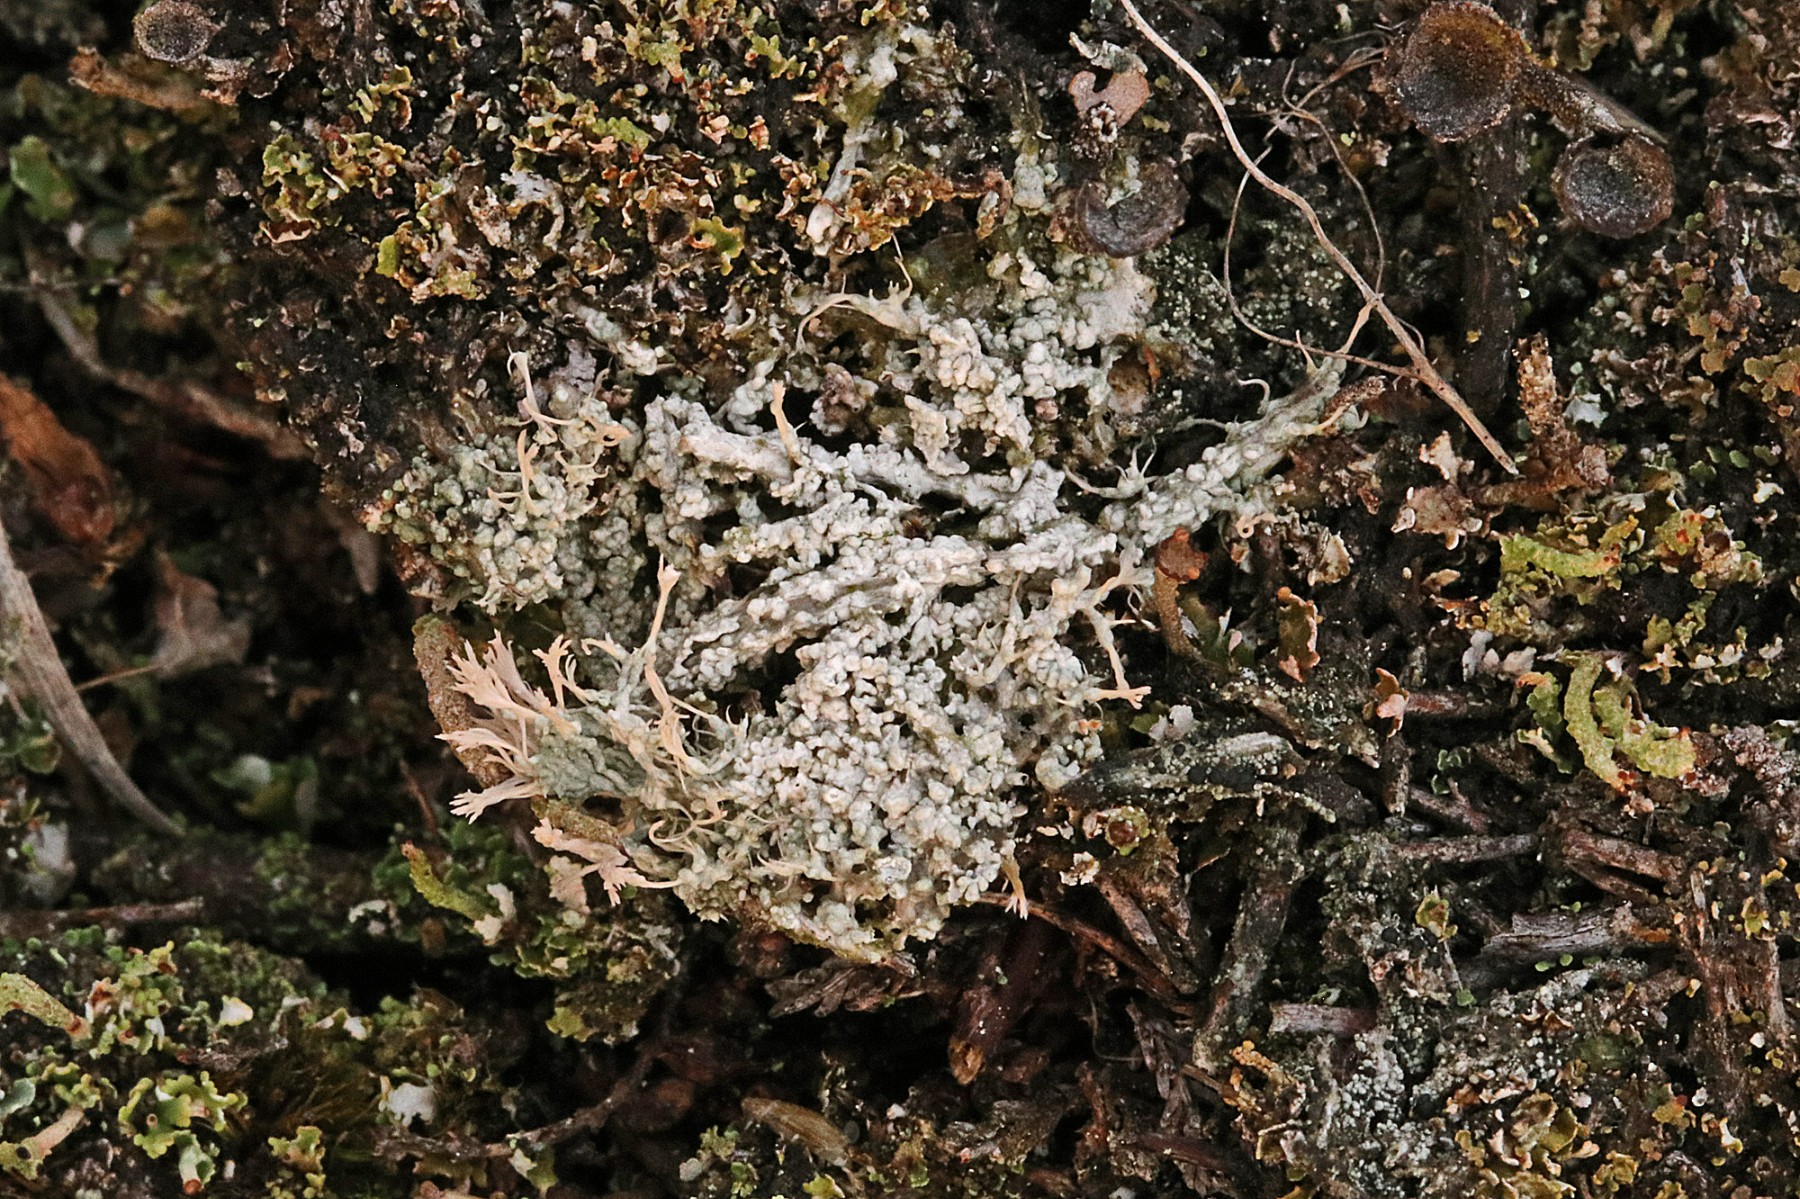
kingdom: Fungi
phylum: Ascomycota
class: Lecanoromycetes
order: Pertusariales
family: Ochrolechiaceae
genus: Ochrolechia
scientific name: Ochrolechia frigida
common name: fjeld-blegskivelav
